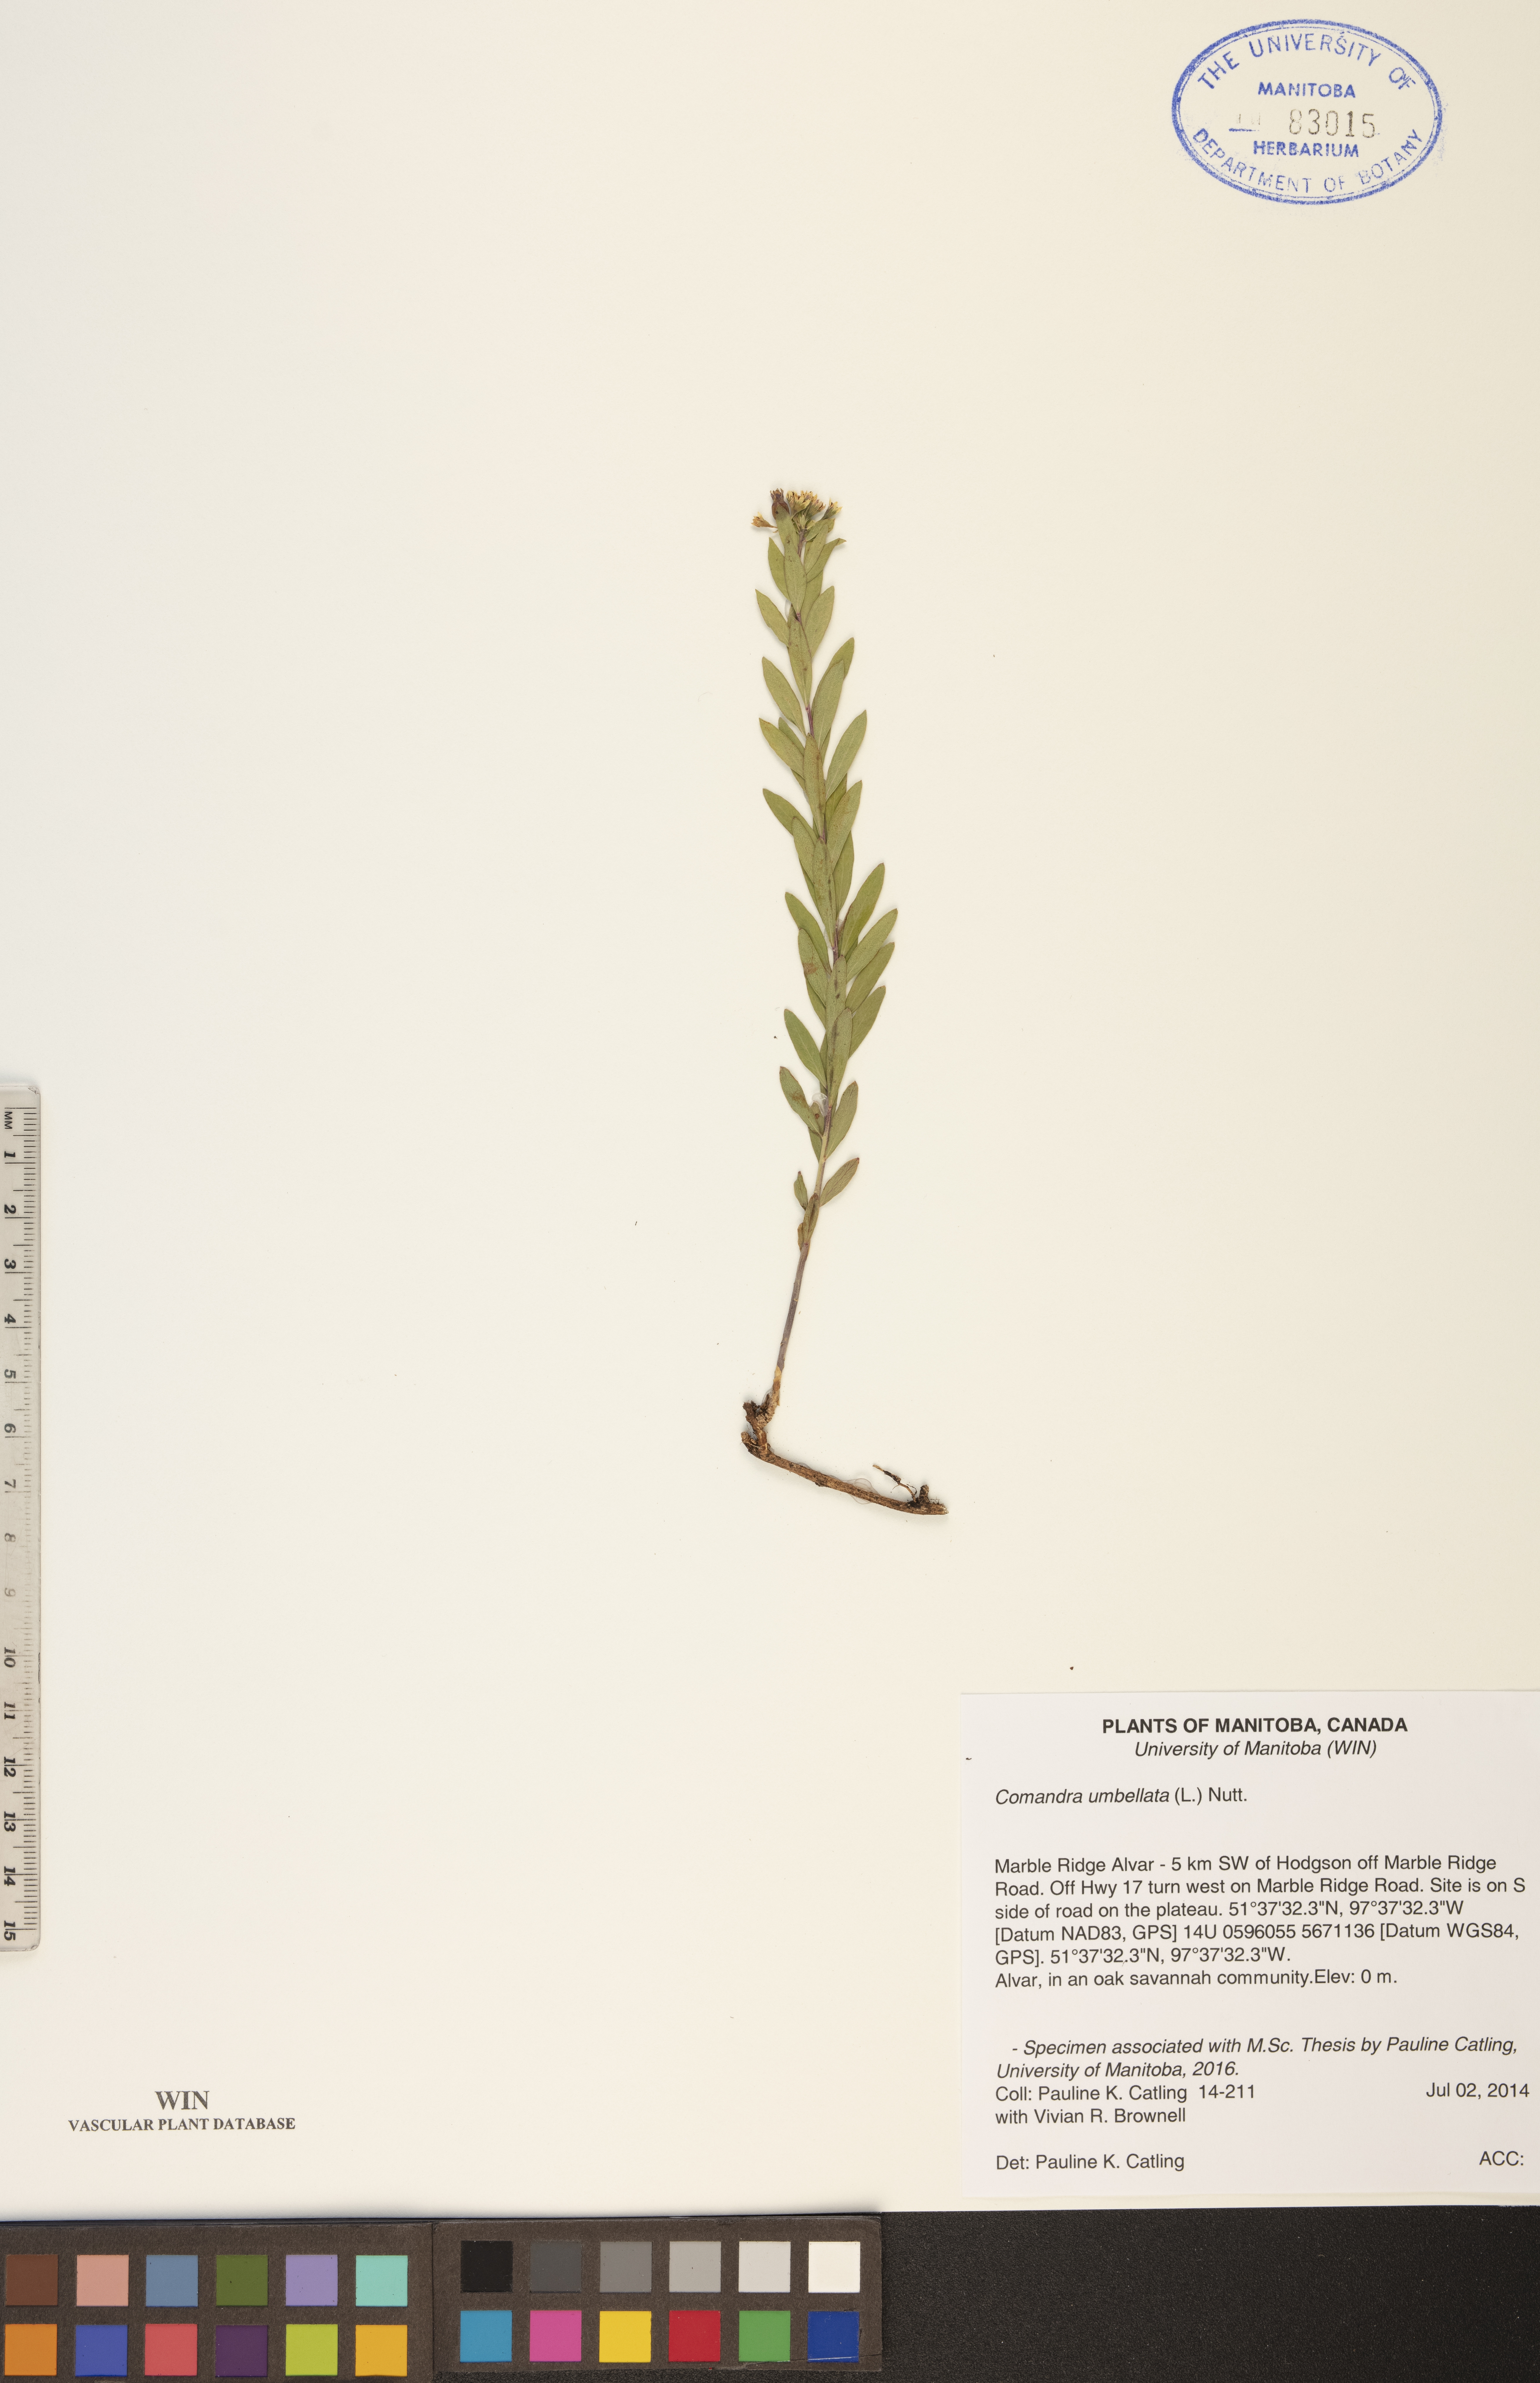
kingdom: Plantae
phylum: Tracheophyta
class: Magnoliopsida
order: Santalales
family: Comandraceae
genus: Comandra
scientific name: Comandra umbellata
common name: Bastard toadflax
